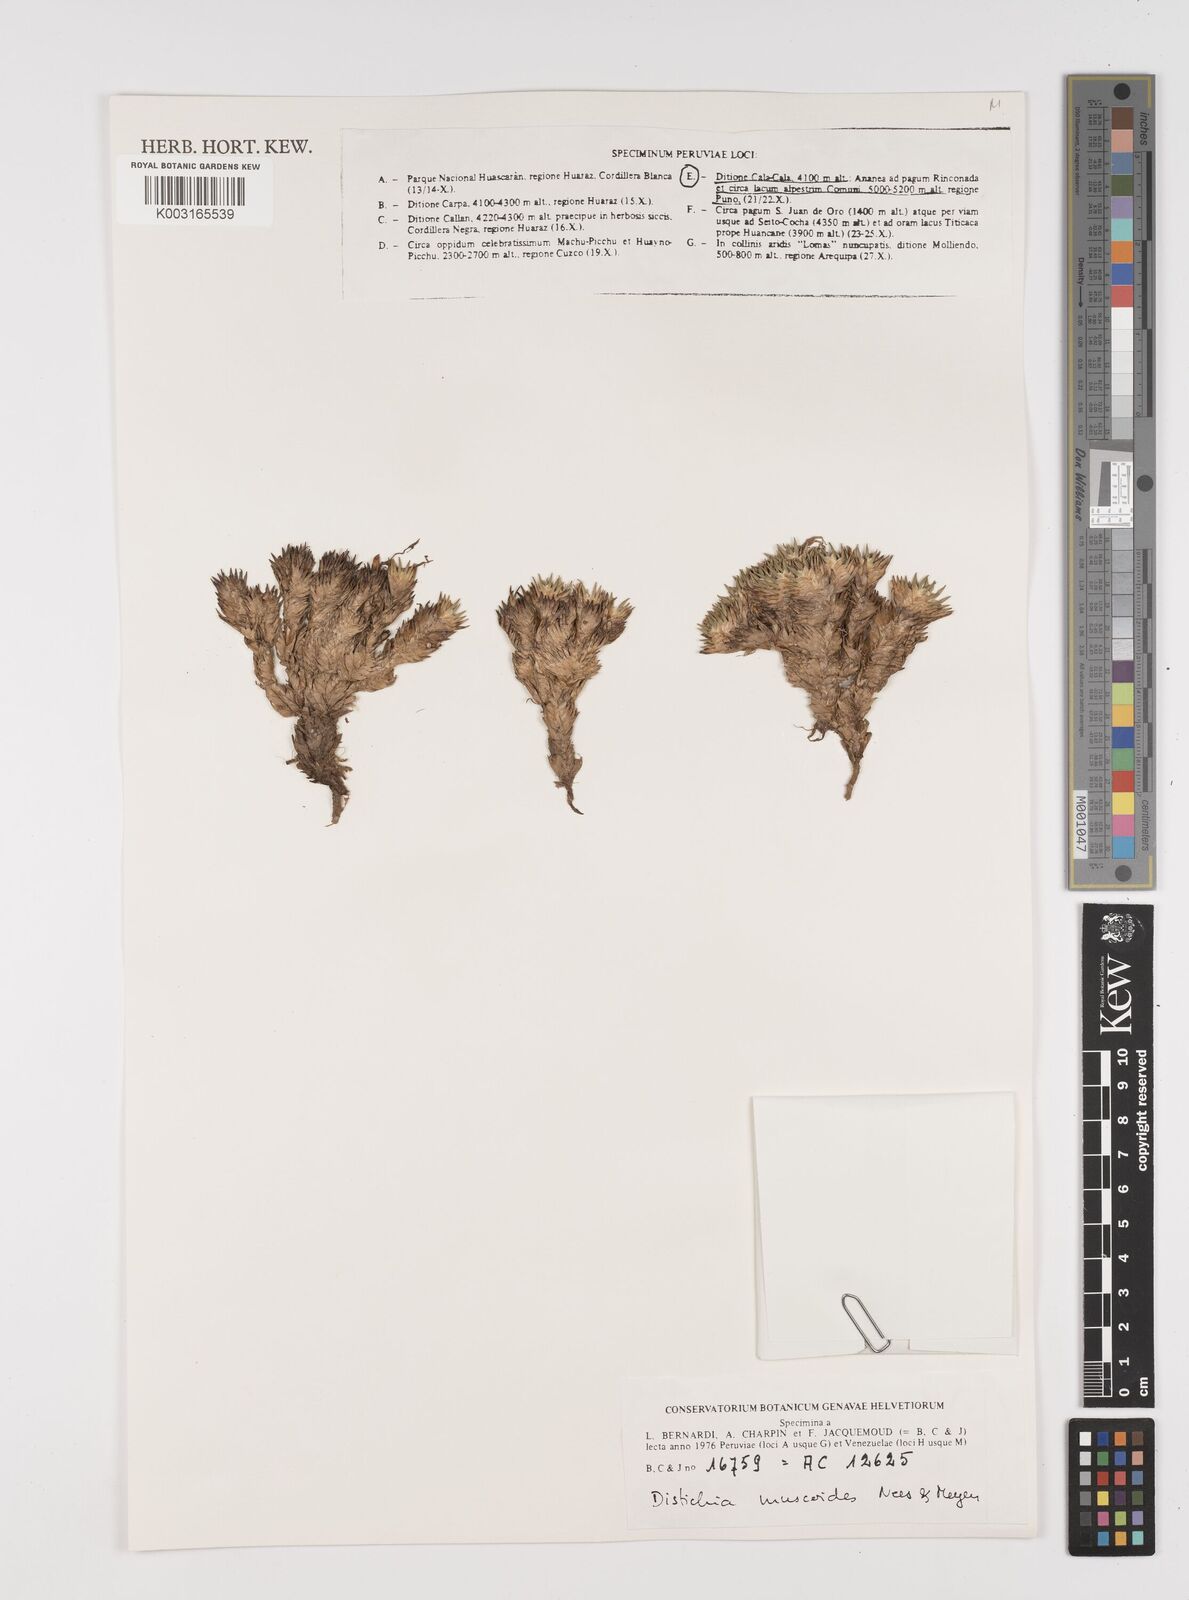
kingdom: Plantae
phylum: Tracheophyta
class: Liliopsida
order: Poales
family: Juncaceae
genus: Distichia
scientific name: Distichia muscoides
